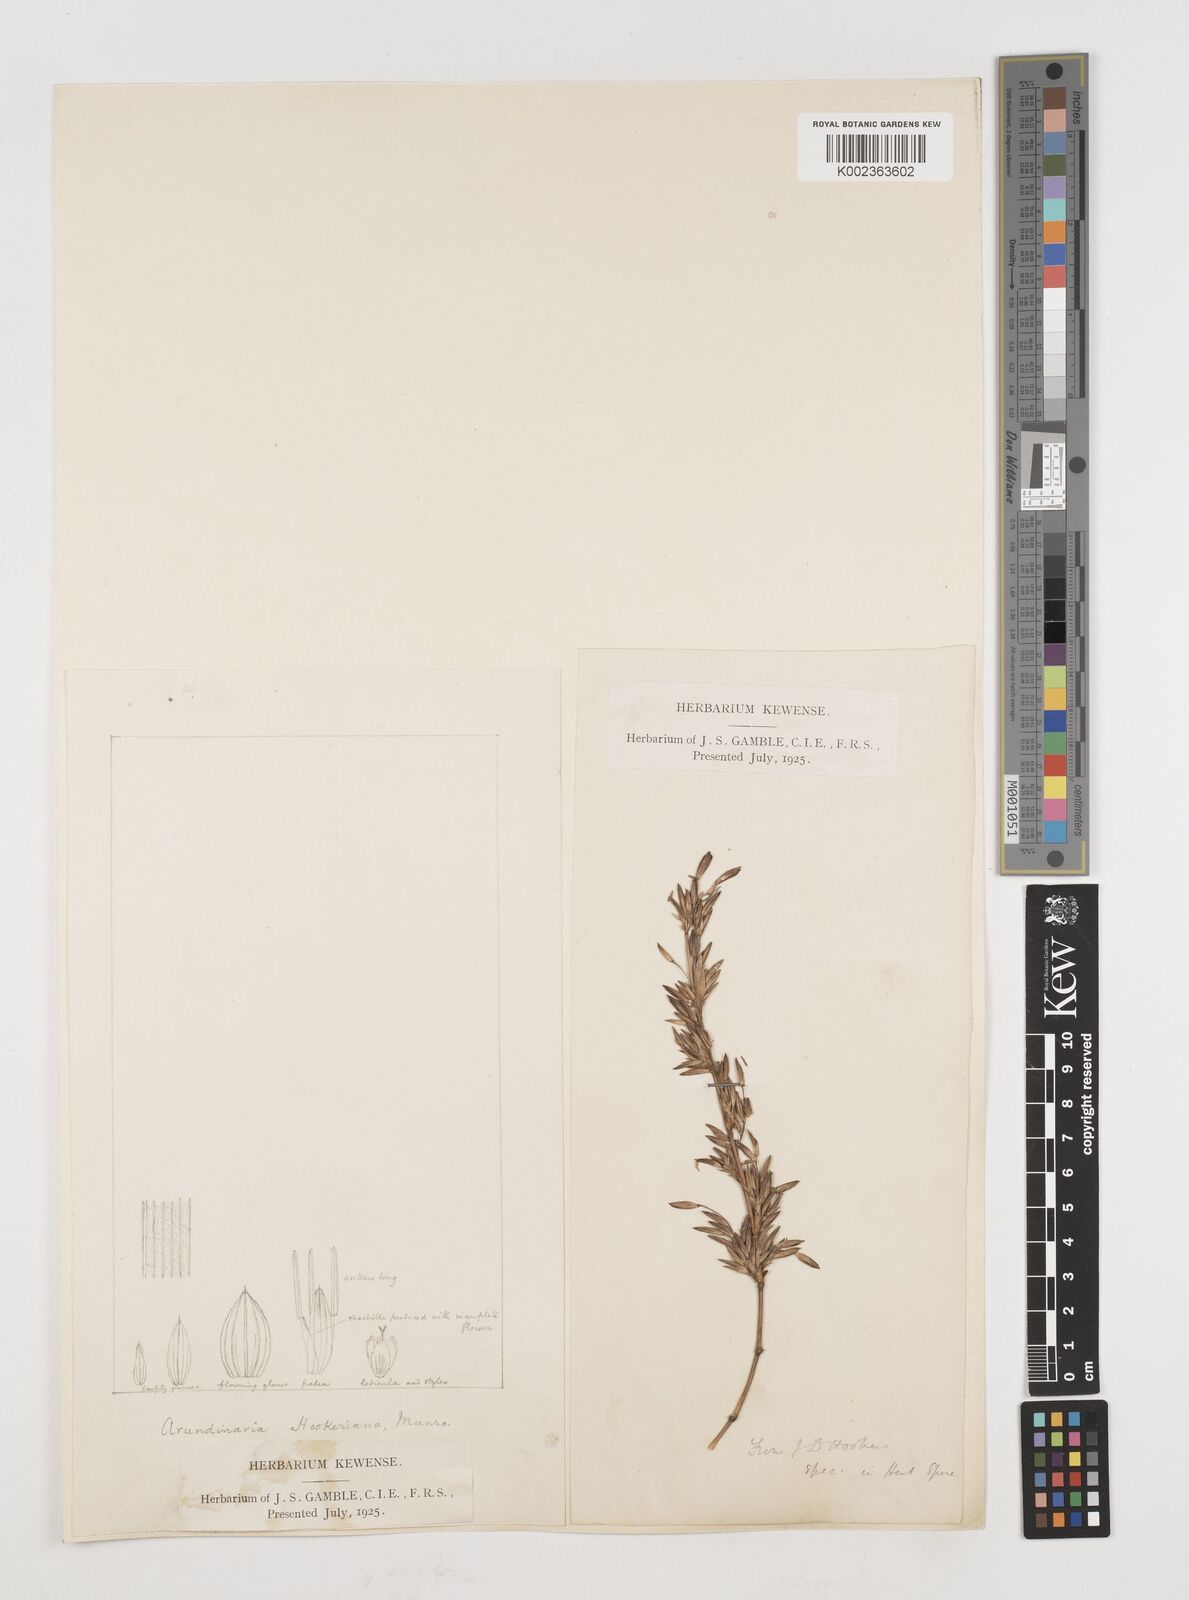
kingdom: Plantae
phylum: Tracheophyta
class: Liliopsida
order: Poales
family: Poaceae
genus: Himalayacalamus
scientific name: Himalayacalamus hookerianus
